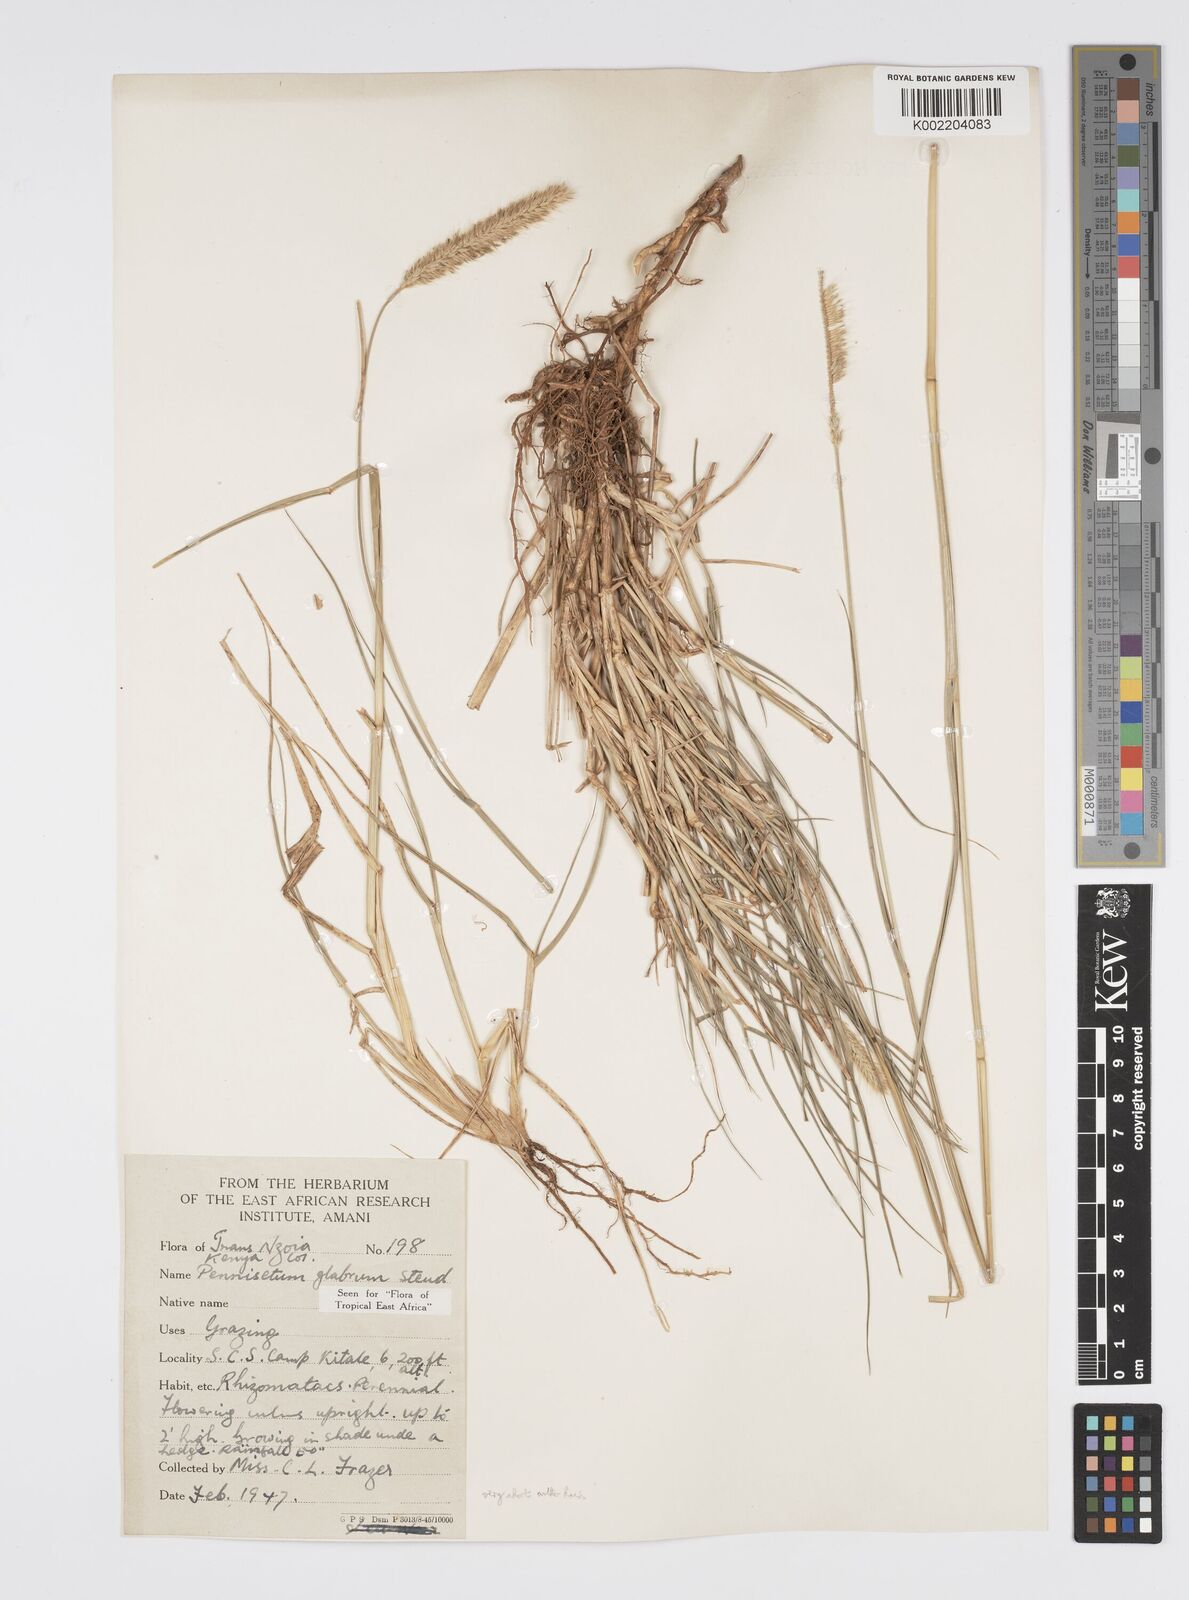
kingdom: Plantae
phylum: Tracheophyta
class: Liliopsida
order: Poales
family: Poaceae
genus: Cenchrus
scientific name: Cenchrus geniculatus
